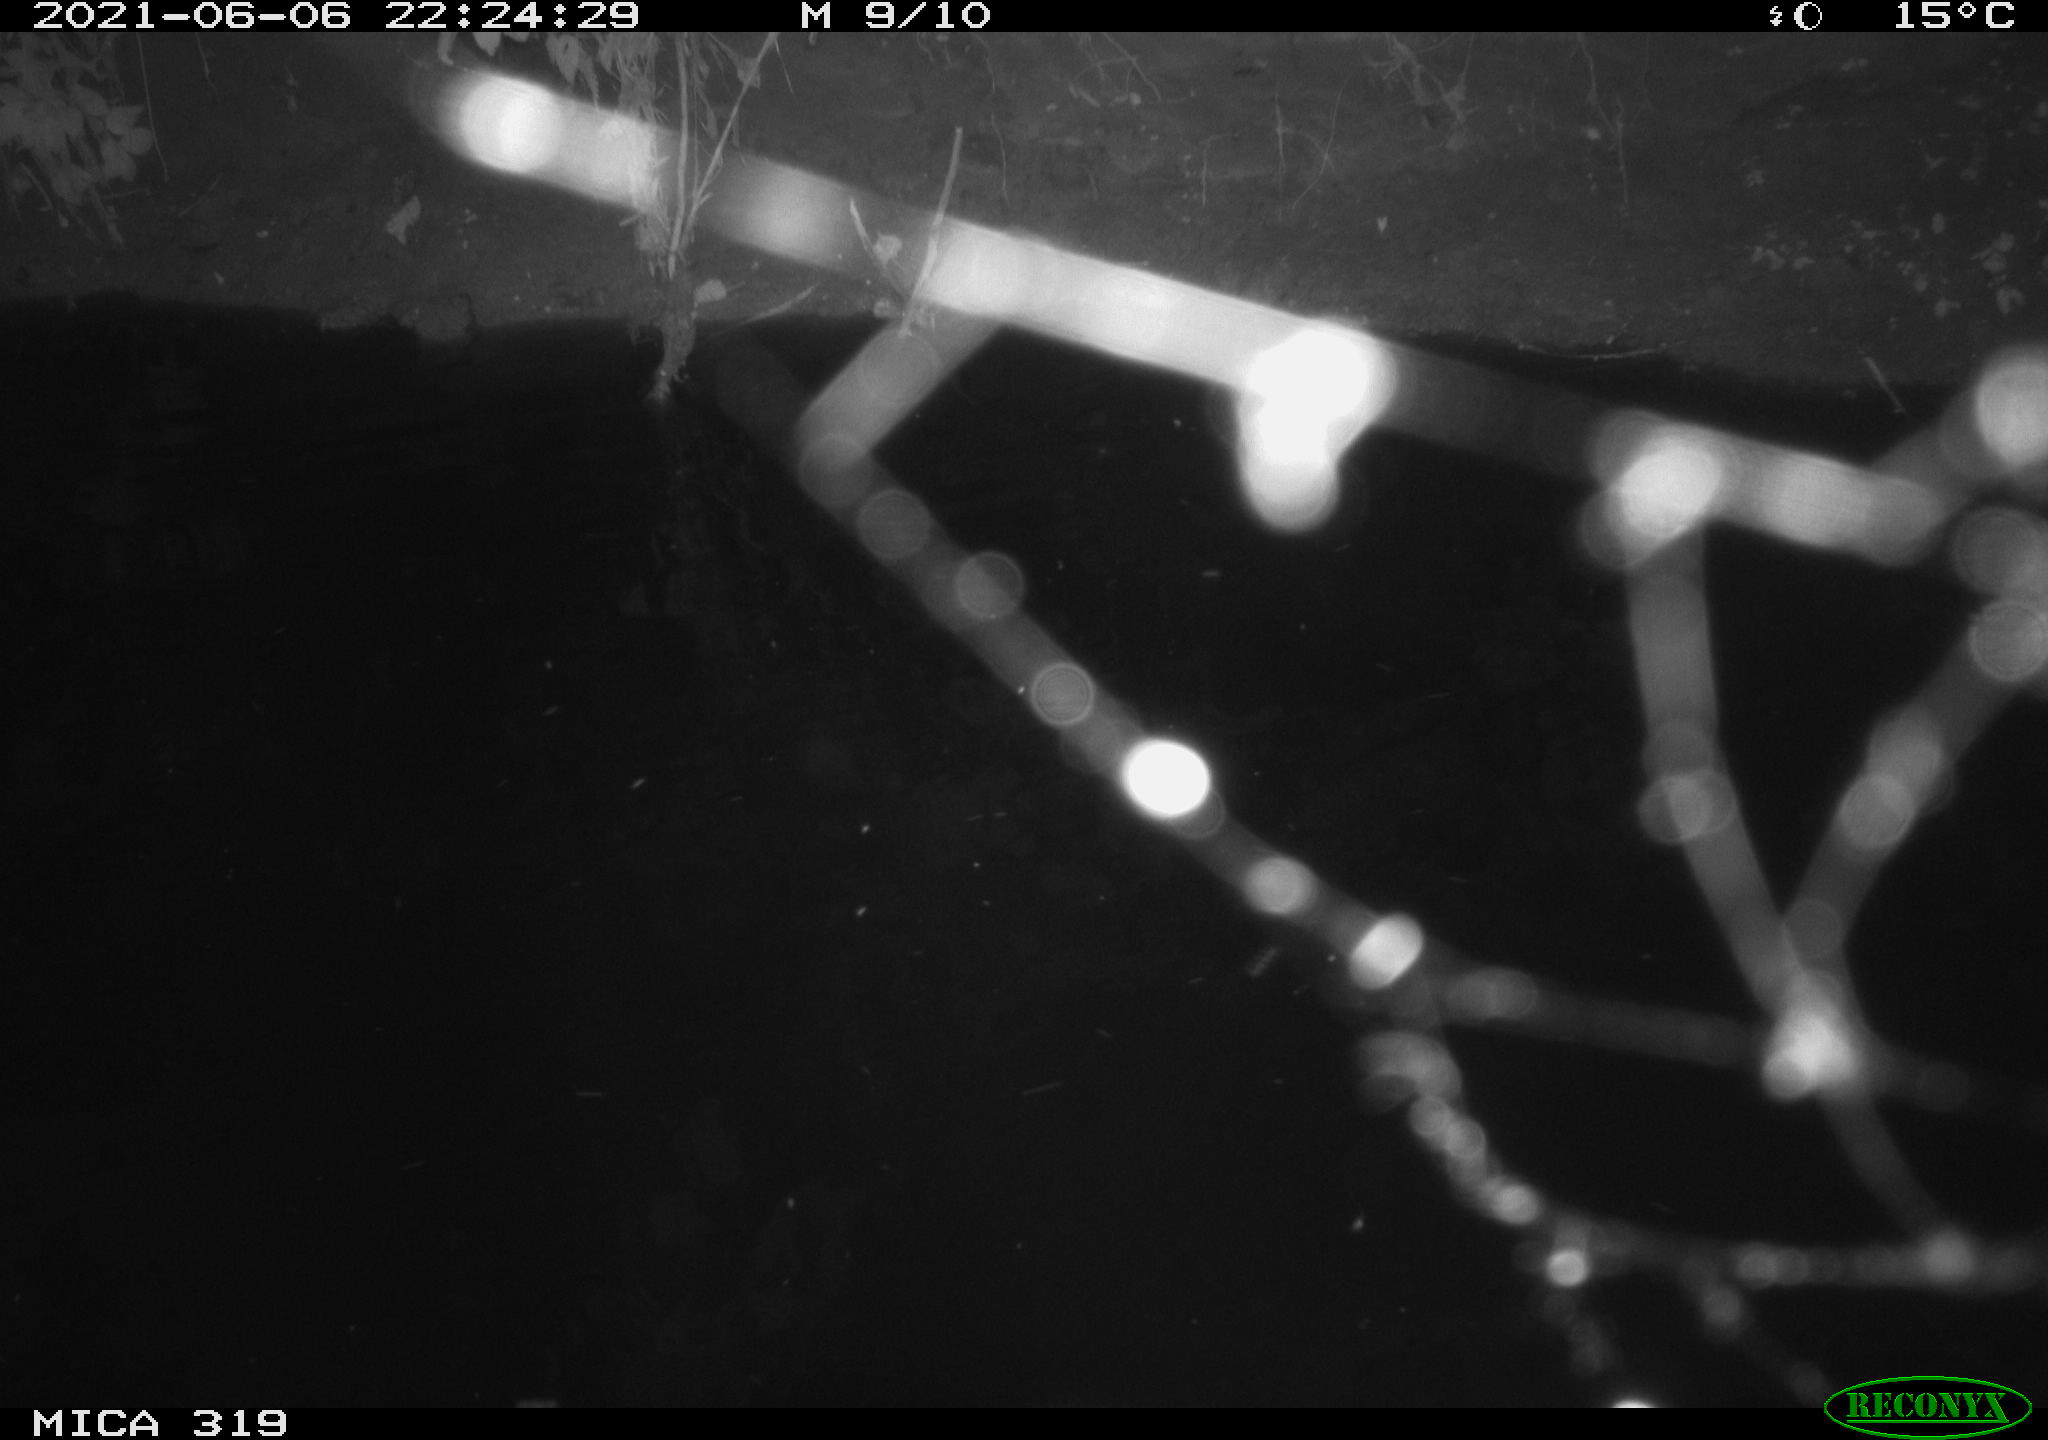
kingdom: Animalia
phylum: Chordata
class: Aves
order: Anseriformes
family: Anatidae
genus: Anas
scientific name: Anas platyrhynchos
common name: Mallard
